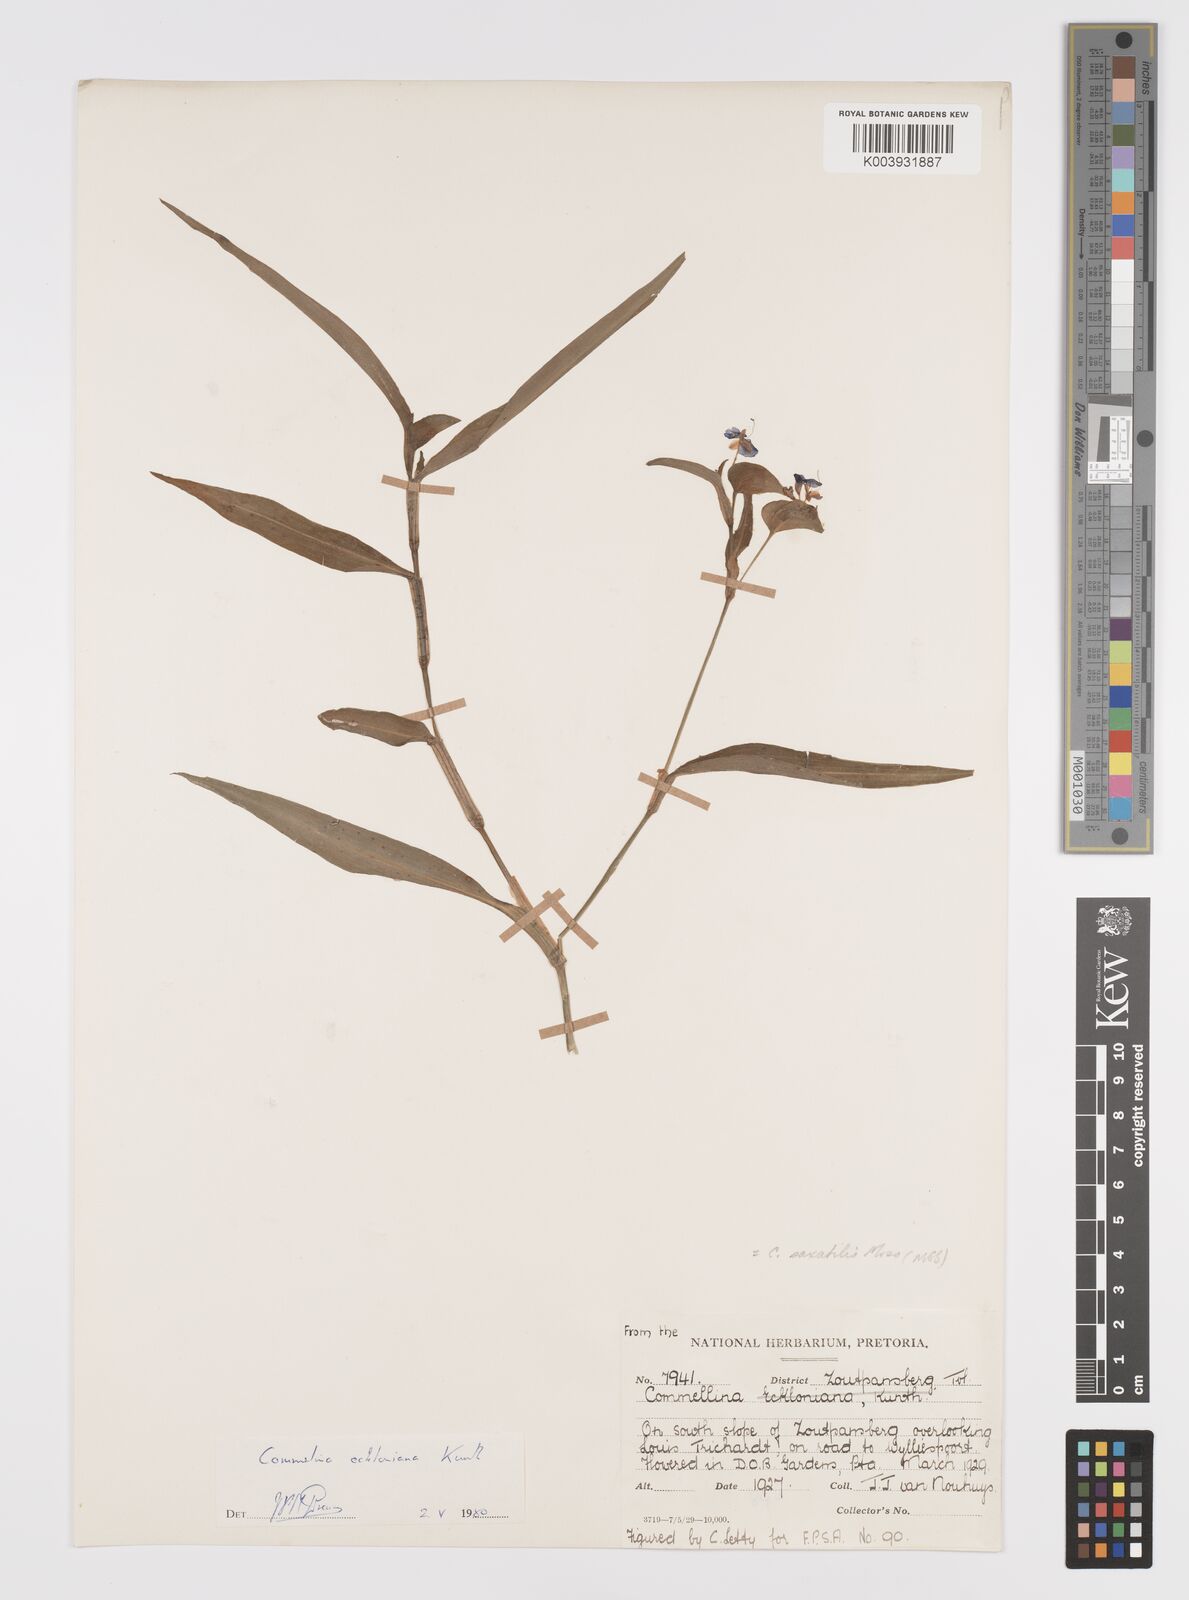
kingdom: Plantae
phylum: Tracheophyta
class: Liliopsida
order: Commelinales
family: Commelinaceae
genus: Commelina
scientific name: Commelina eckloniana
